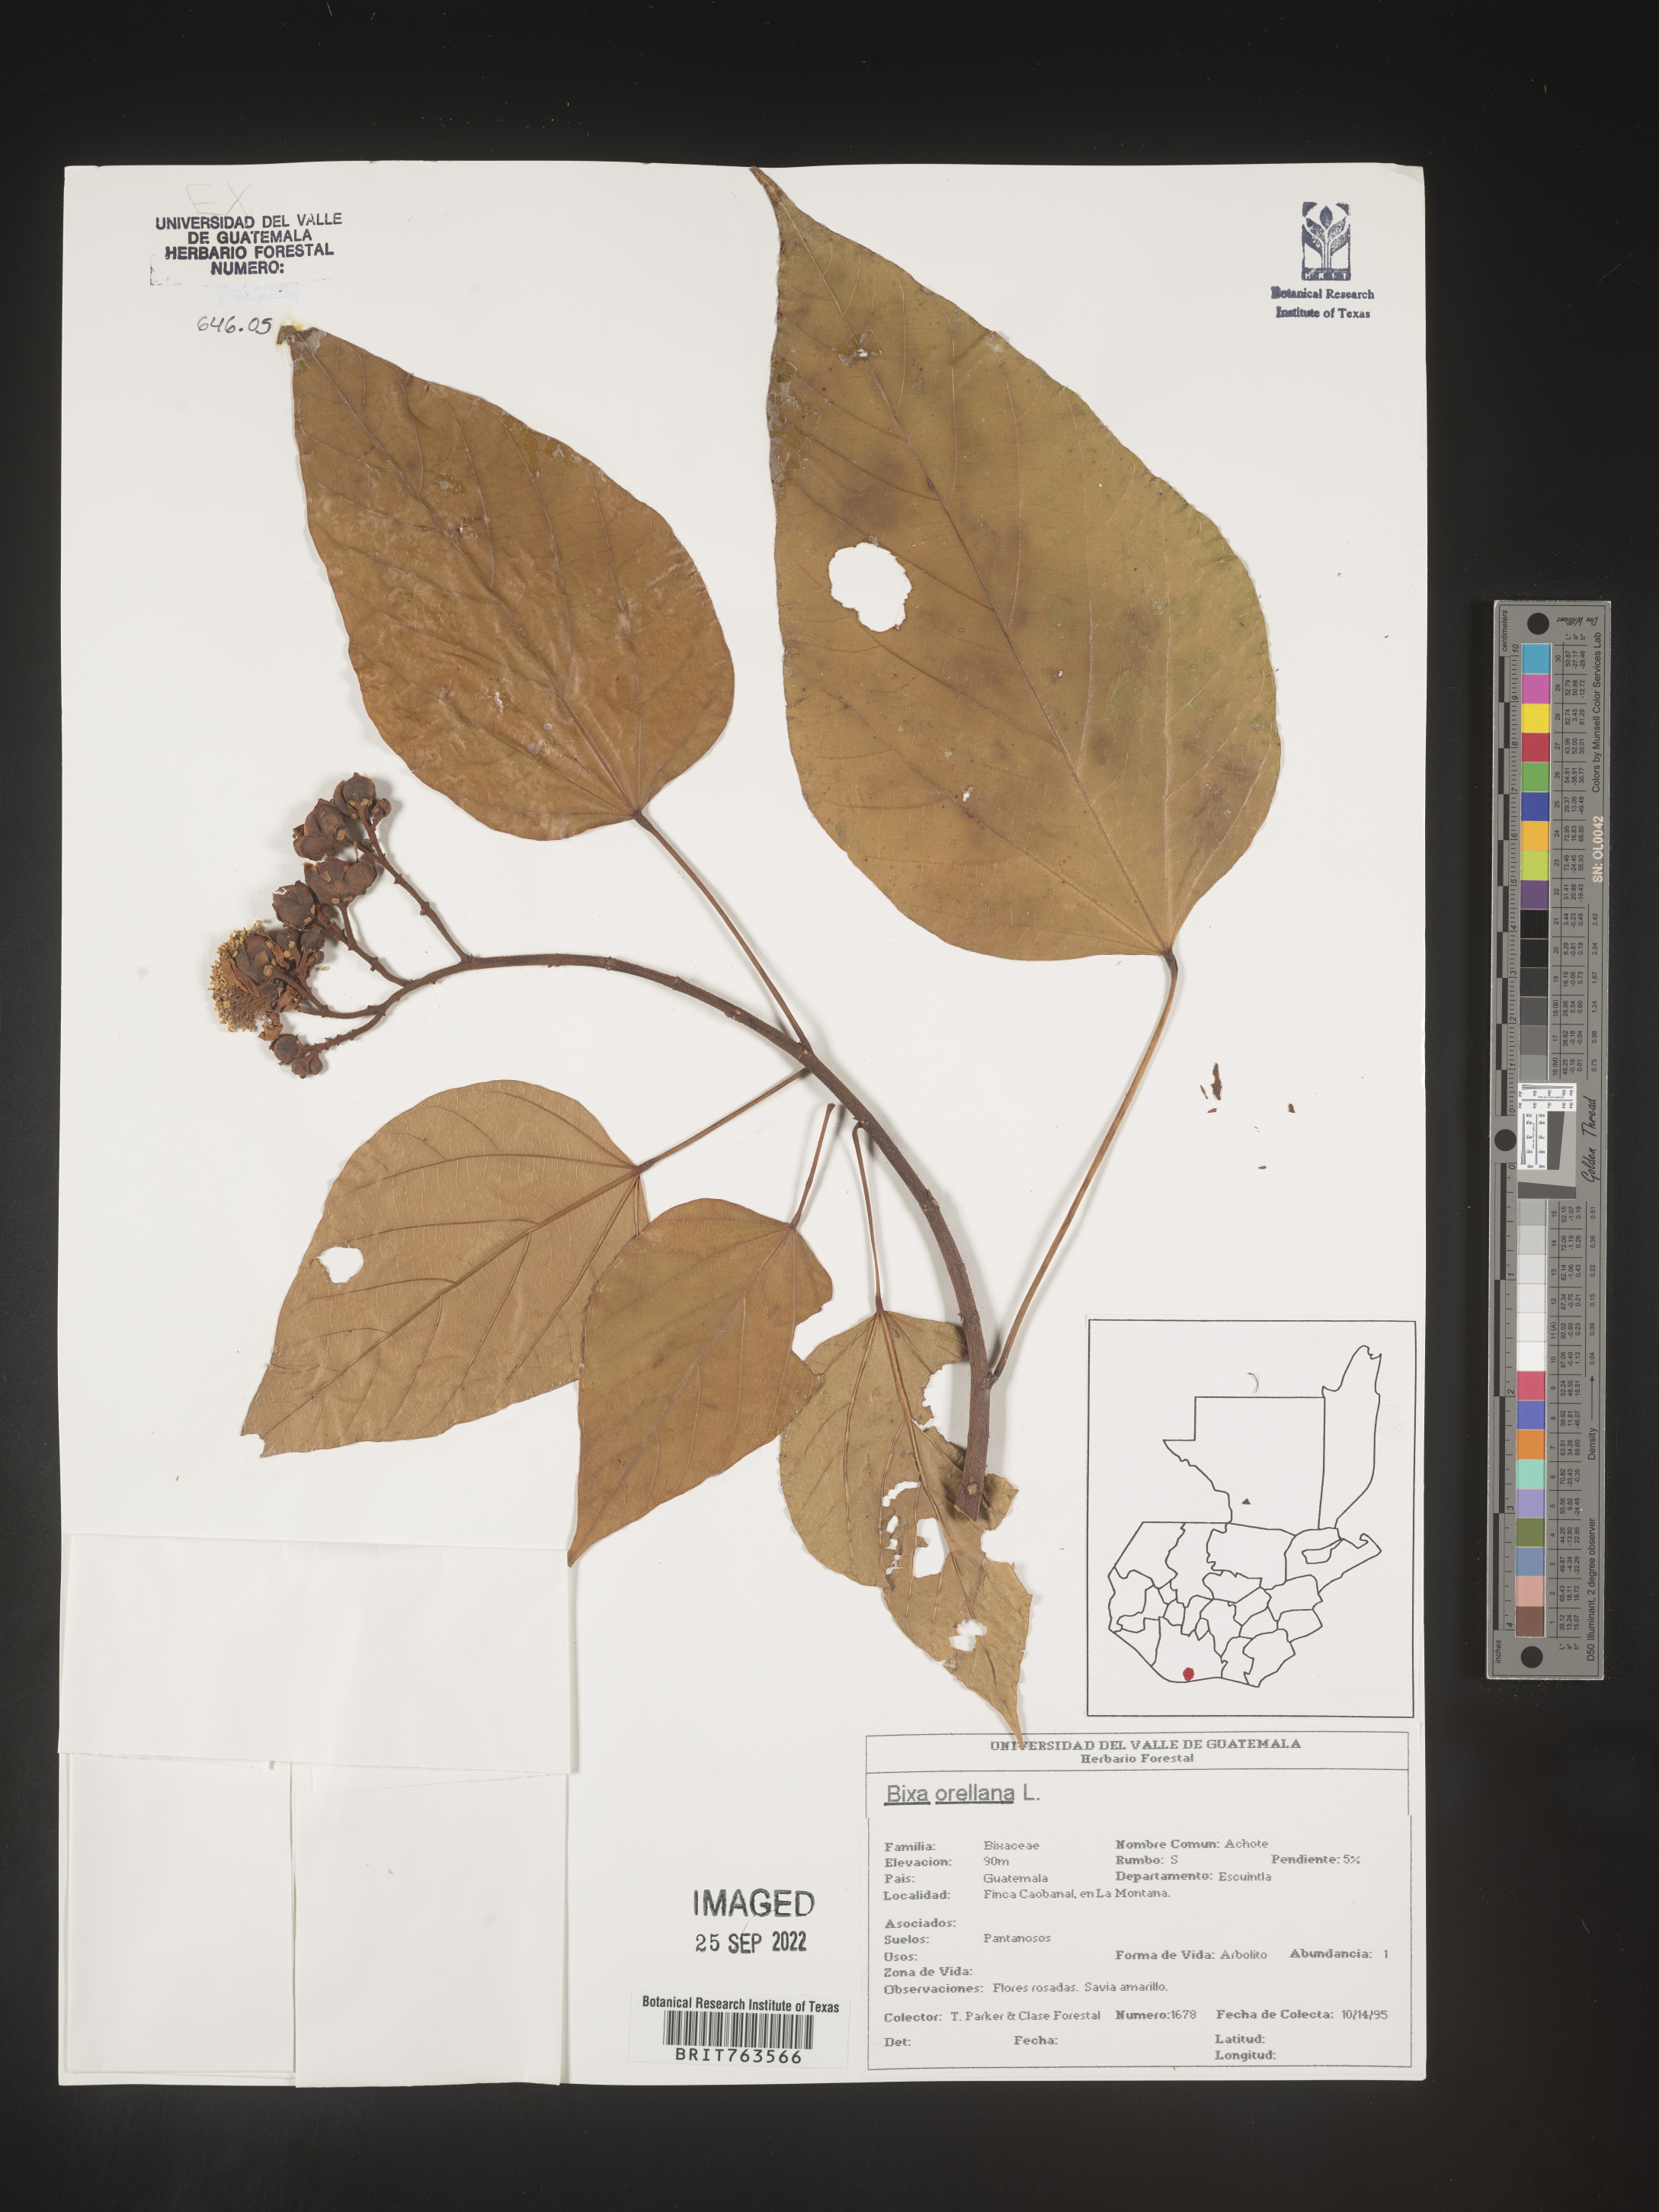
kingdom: Plantae
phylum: Tracheophyta
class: Magnoliopsida
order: Malvales
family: Bixaceae
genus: Bixa
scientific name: Bixa
